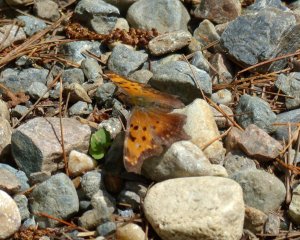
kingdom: Animalia
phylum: Arthropoda
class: Insecta
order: Lepidoptera
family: Nymphalidae
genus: Polygonia
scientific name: Polygonia progne
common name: Gray Comma
